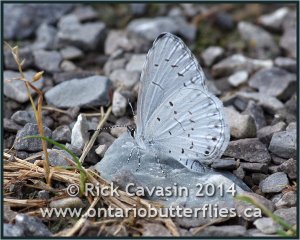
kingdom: Animalia
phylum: Arthropoda
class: Insecta
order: Lepidoptera
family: Lycaenidae
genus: Cyaniris
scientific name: Cyaniris neglecta
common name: Summer Azure
